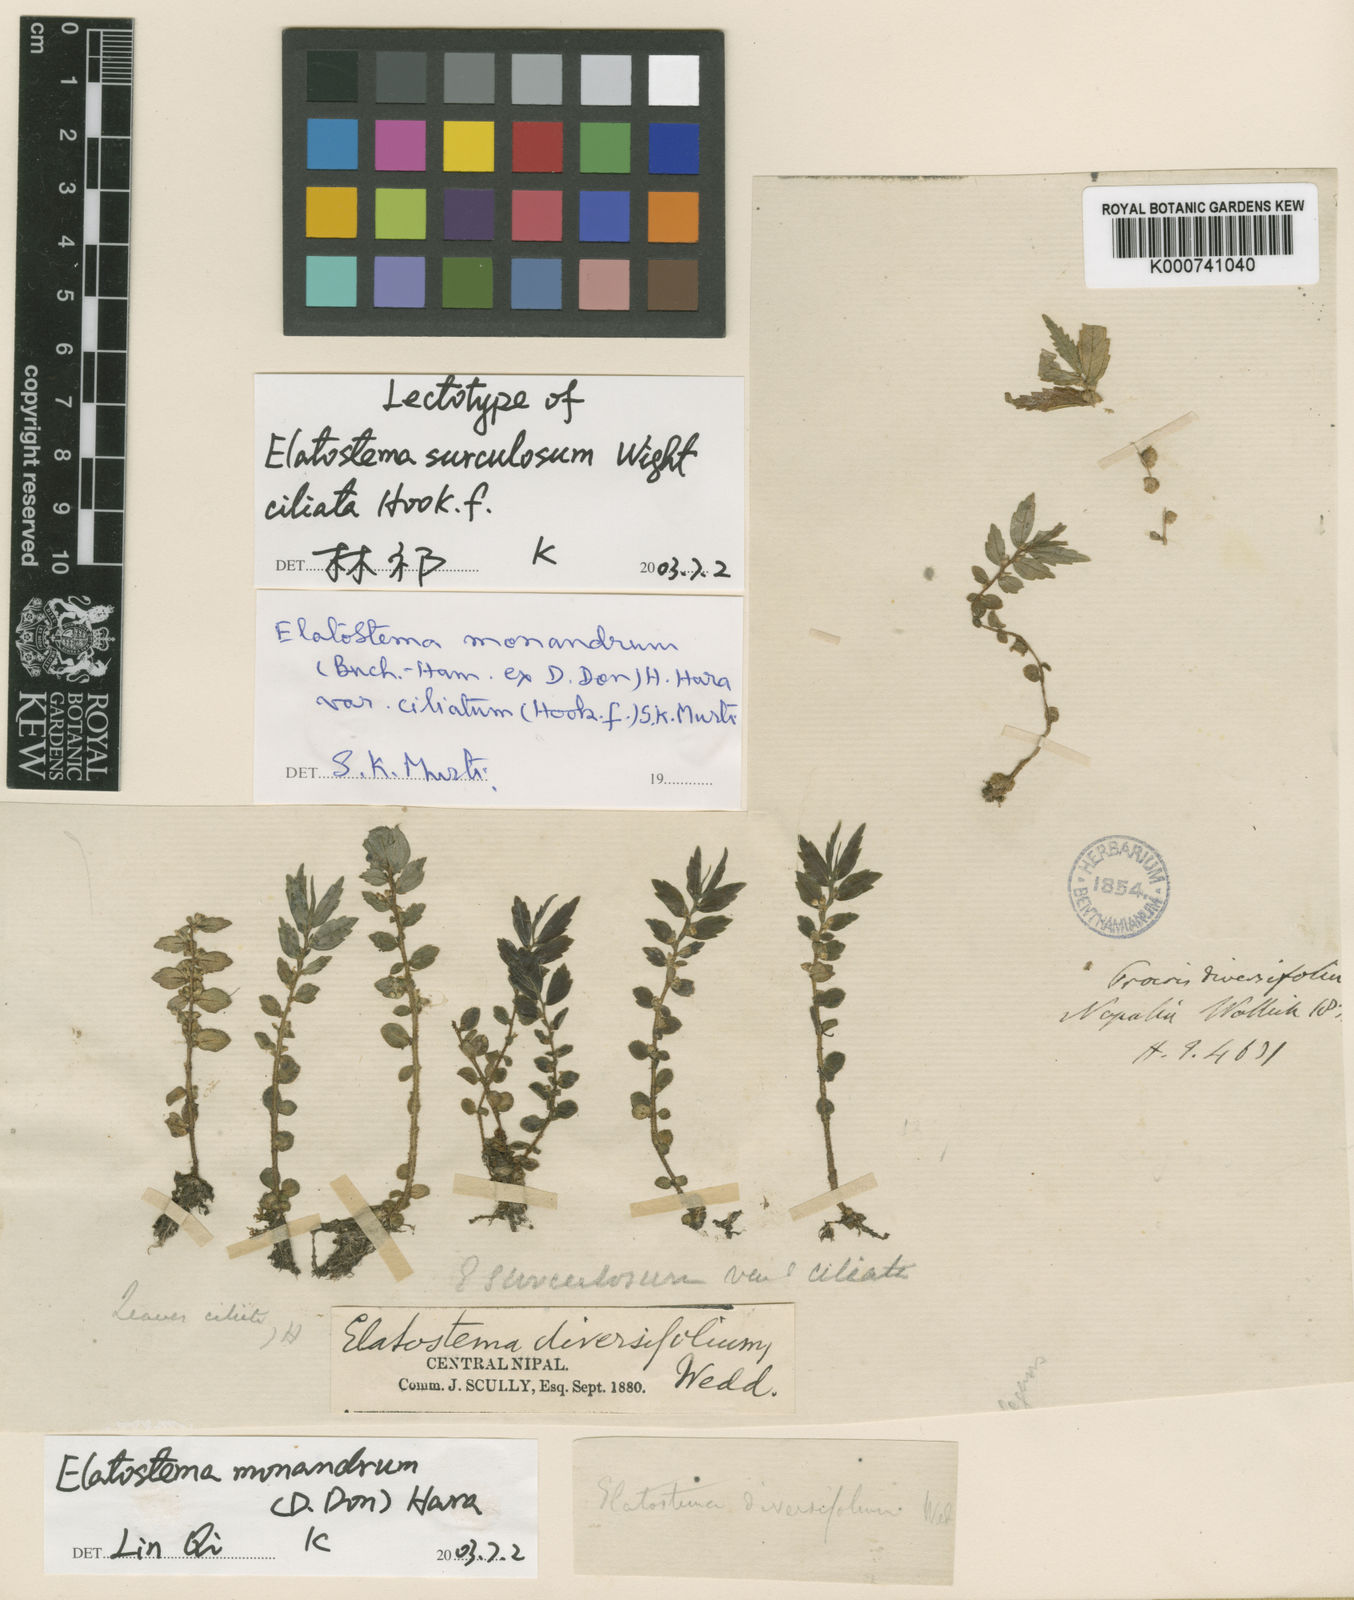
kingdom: Plantae
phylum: Tracheophyta
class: Magnoliopsida
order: Rosales
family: Urticaceae
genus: Elatostema
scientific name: Elatostema monandrum
